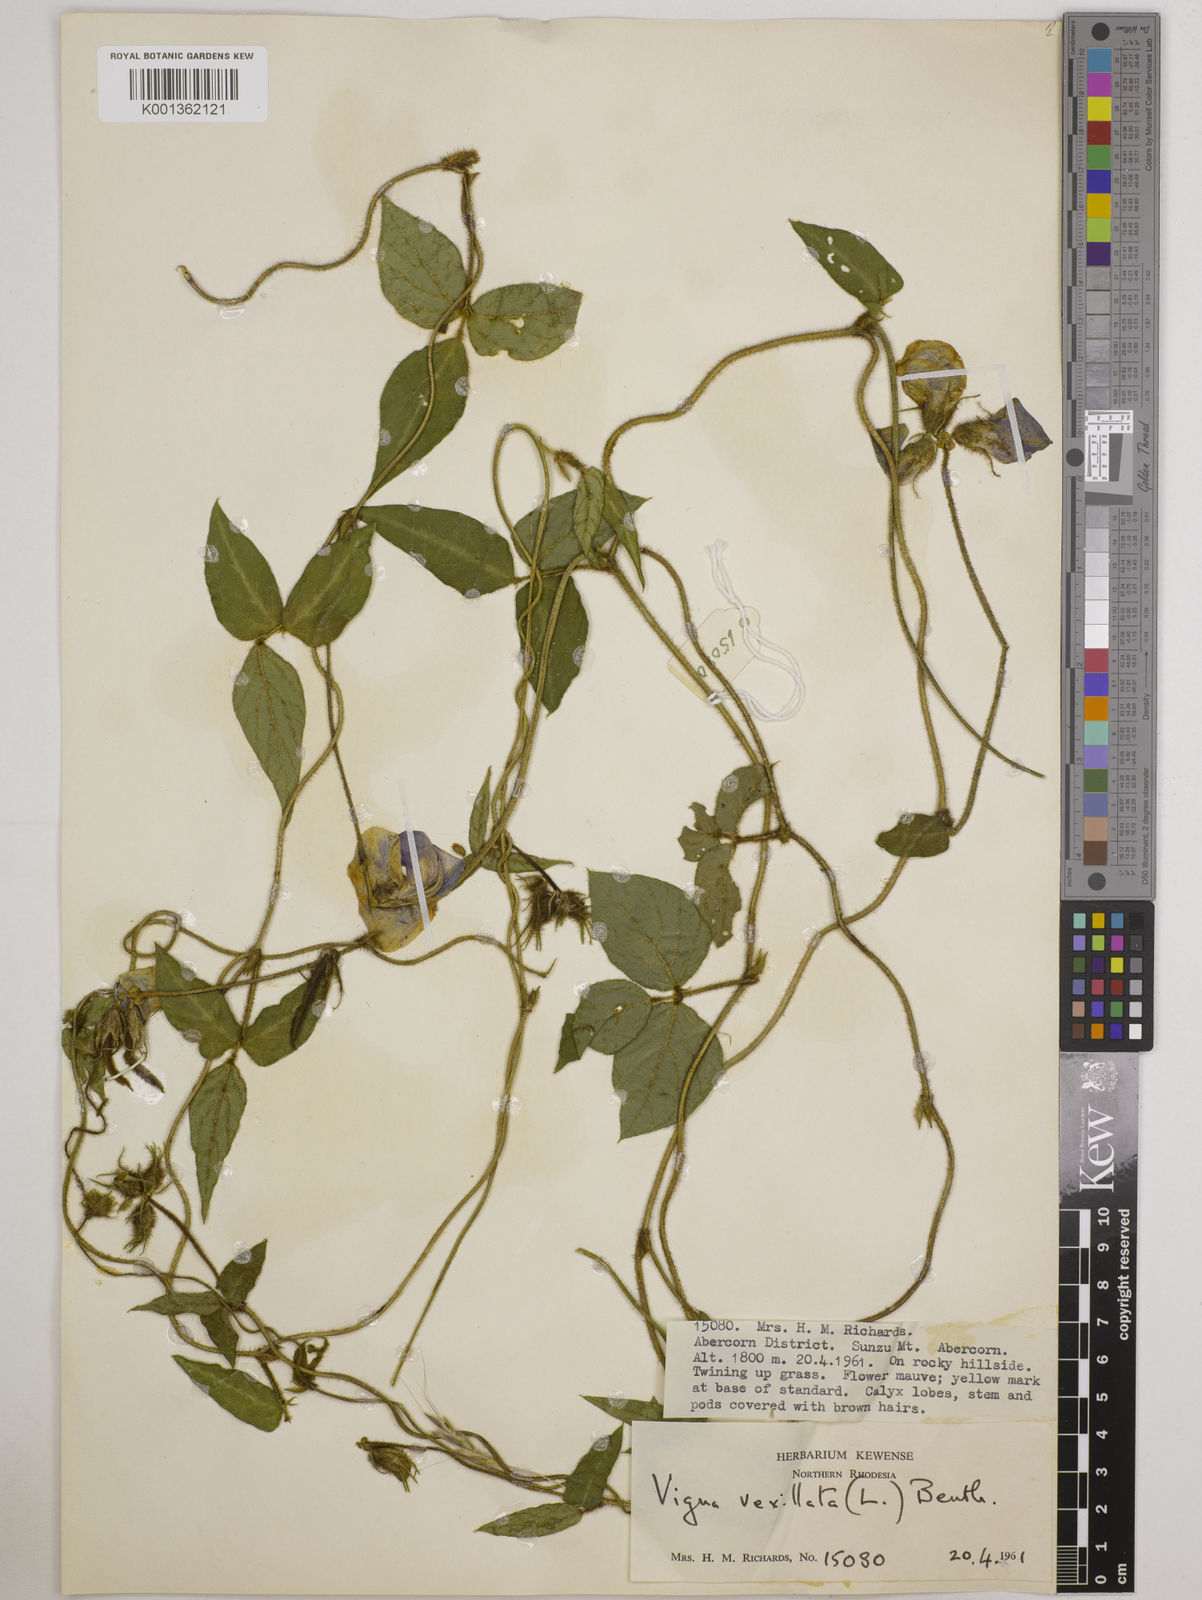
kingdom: Plantae
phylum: Tracheophyta
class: Magnoliopsida
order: Fabales
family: Fabaceae
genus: Vigna
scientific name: Vigna vexillata
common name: Zombi pea
